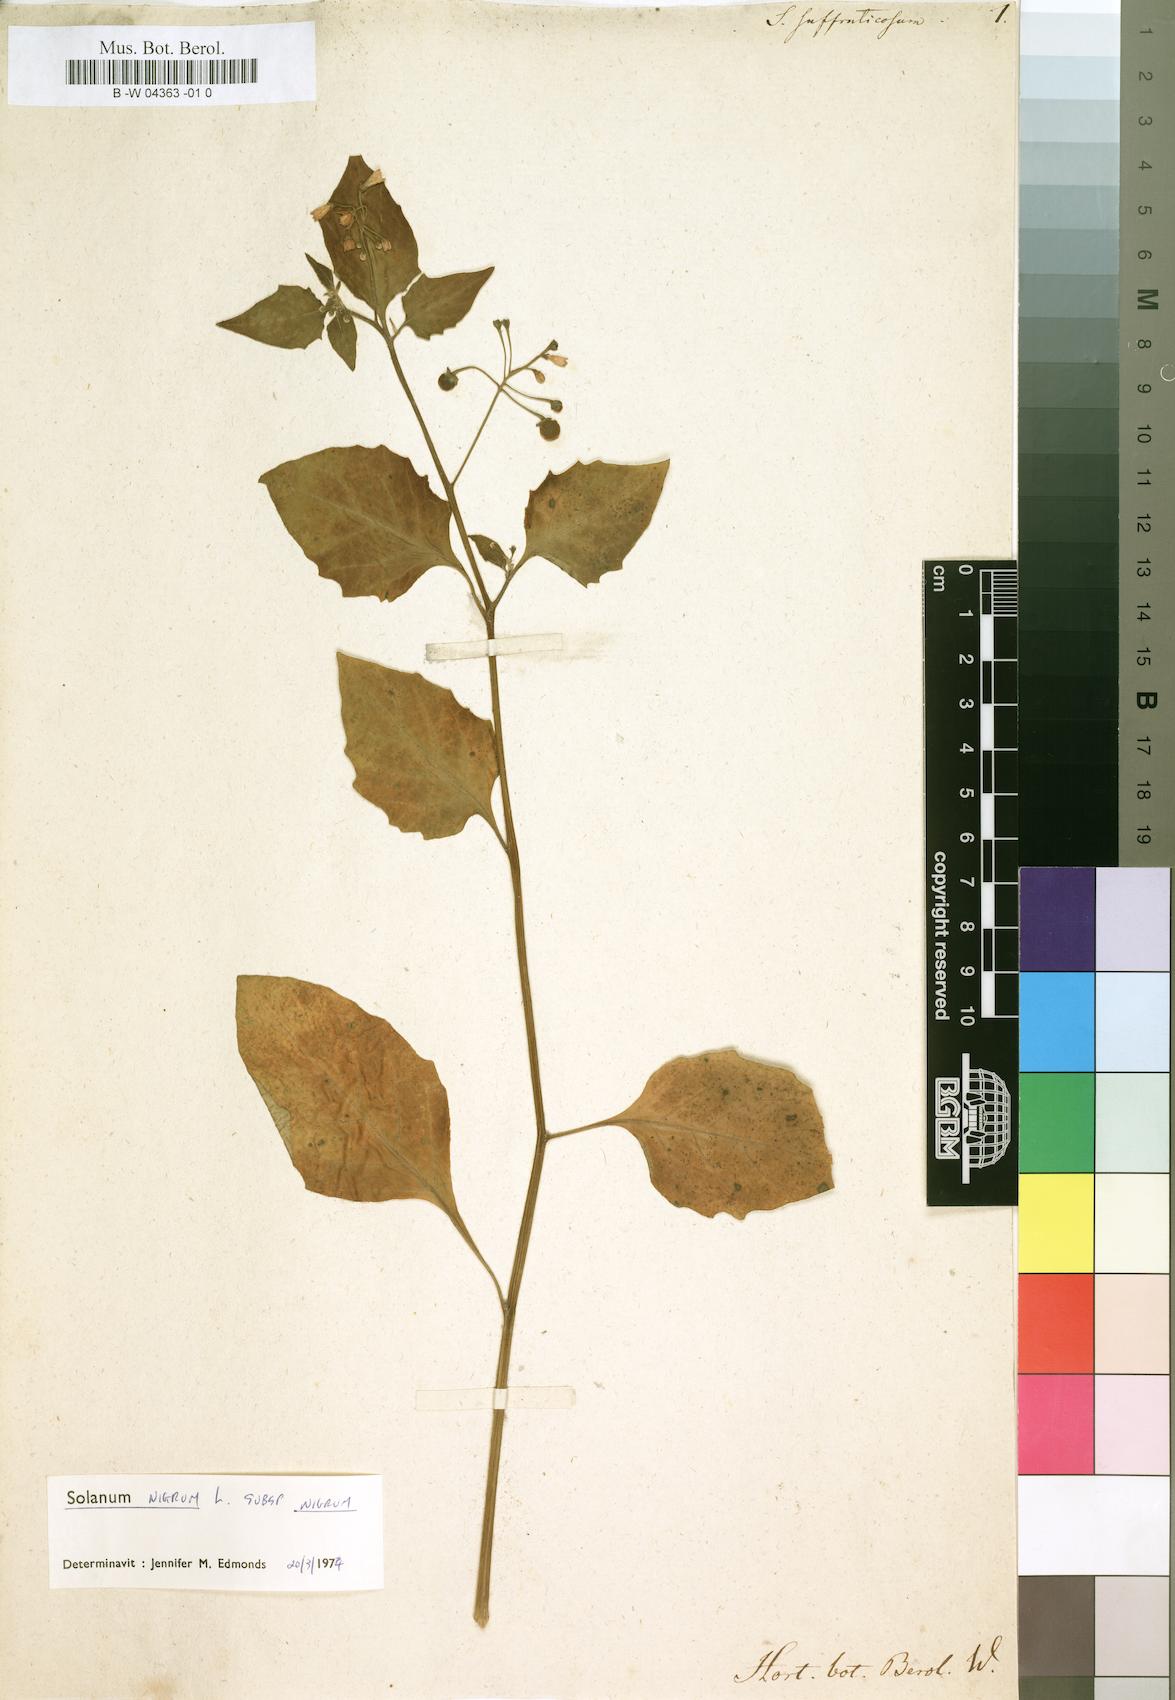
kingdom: Plantae
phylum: Tracheophyta
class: Magnoliopsida
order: Solanales
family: Solanaceae
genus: Solanum
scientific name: Solanum
